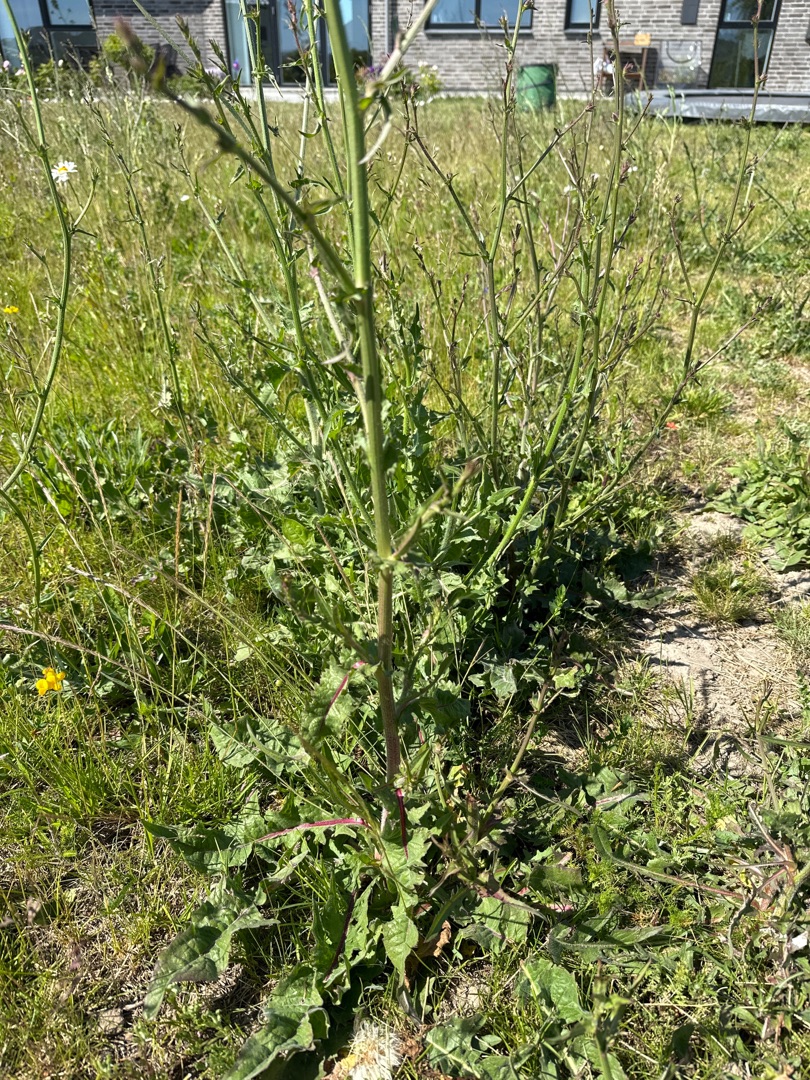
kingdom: Plantae
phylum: Tracheophyta
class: Magnoliopsida
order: Asterales
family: Asteraceae
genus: Cichorium
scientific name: Cichorium intybus
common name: Cikorie
